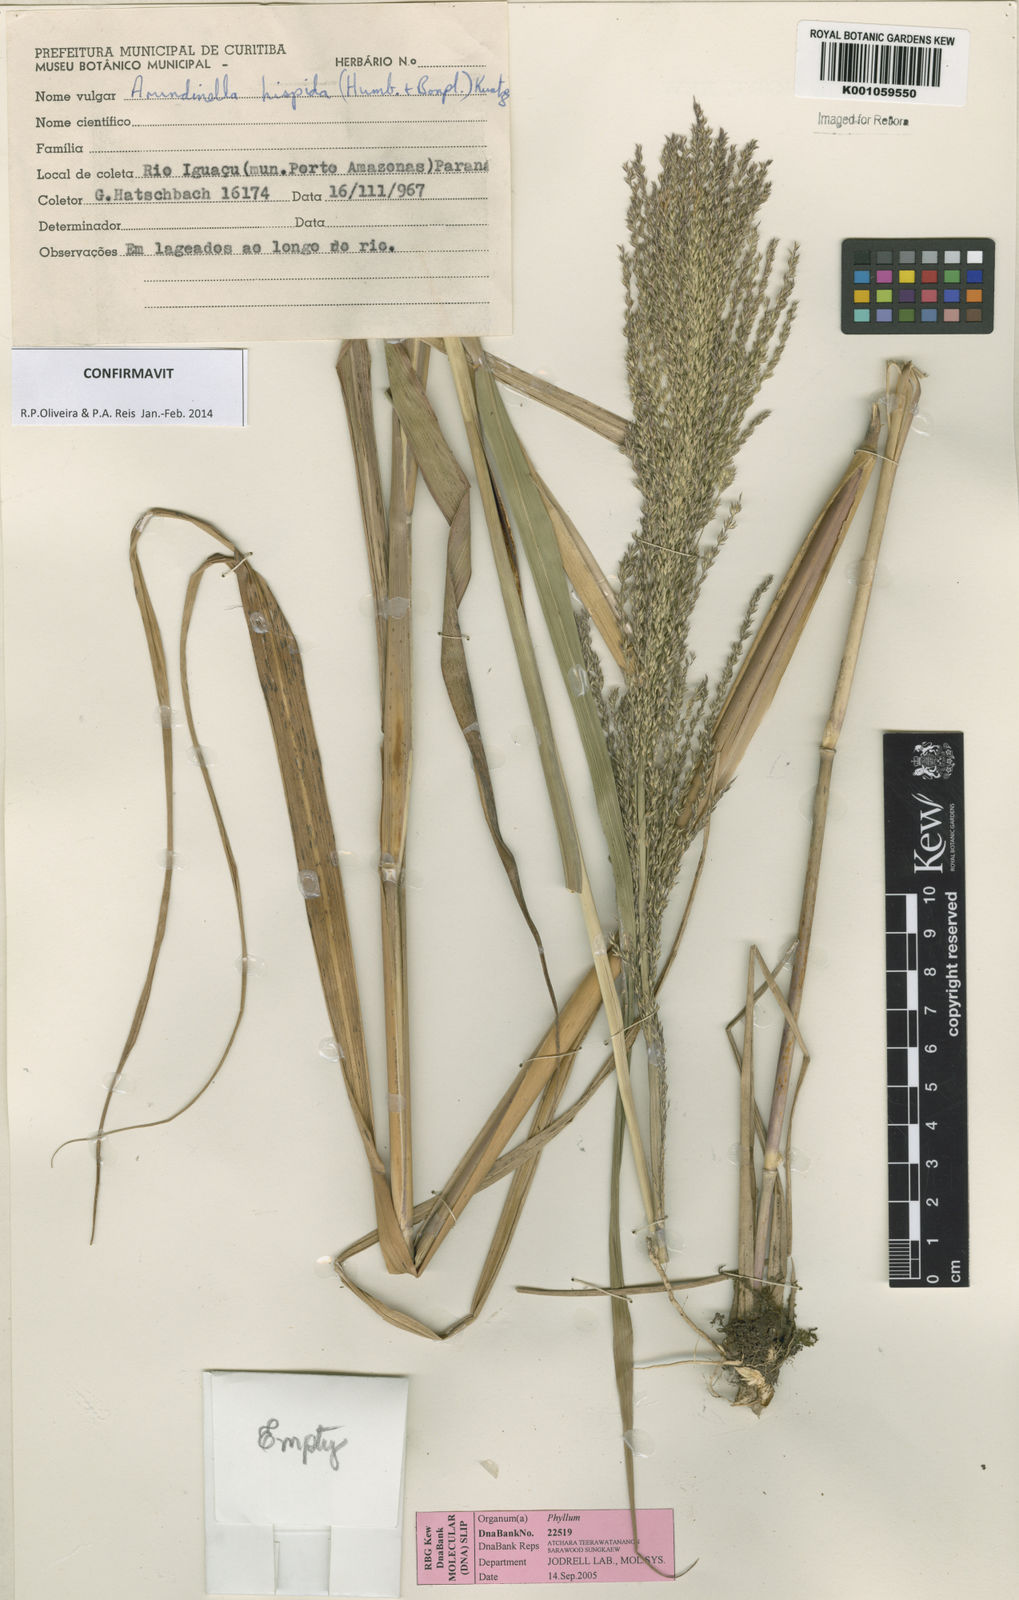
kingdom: Plantae
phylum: Tracheophyta
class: Liliopsida
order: Poales
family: Poaceae
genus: Arundinella
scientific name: Arundinella hispida
